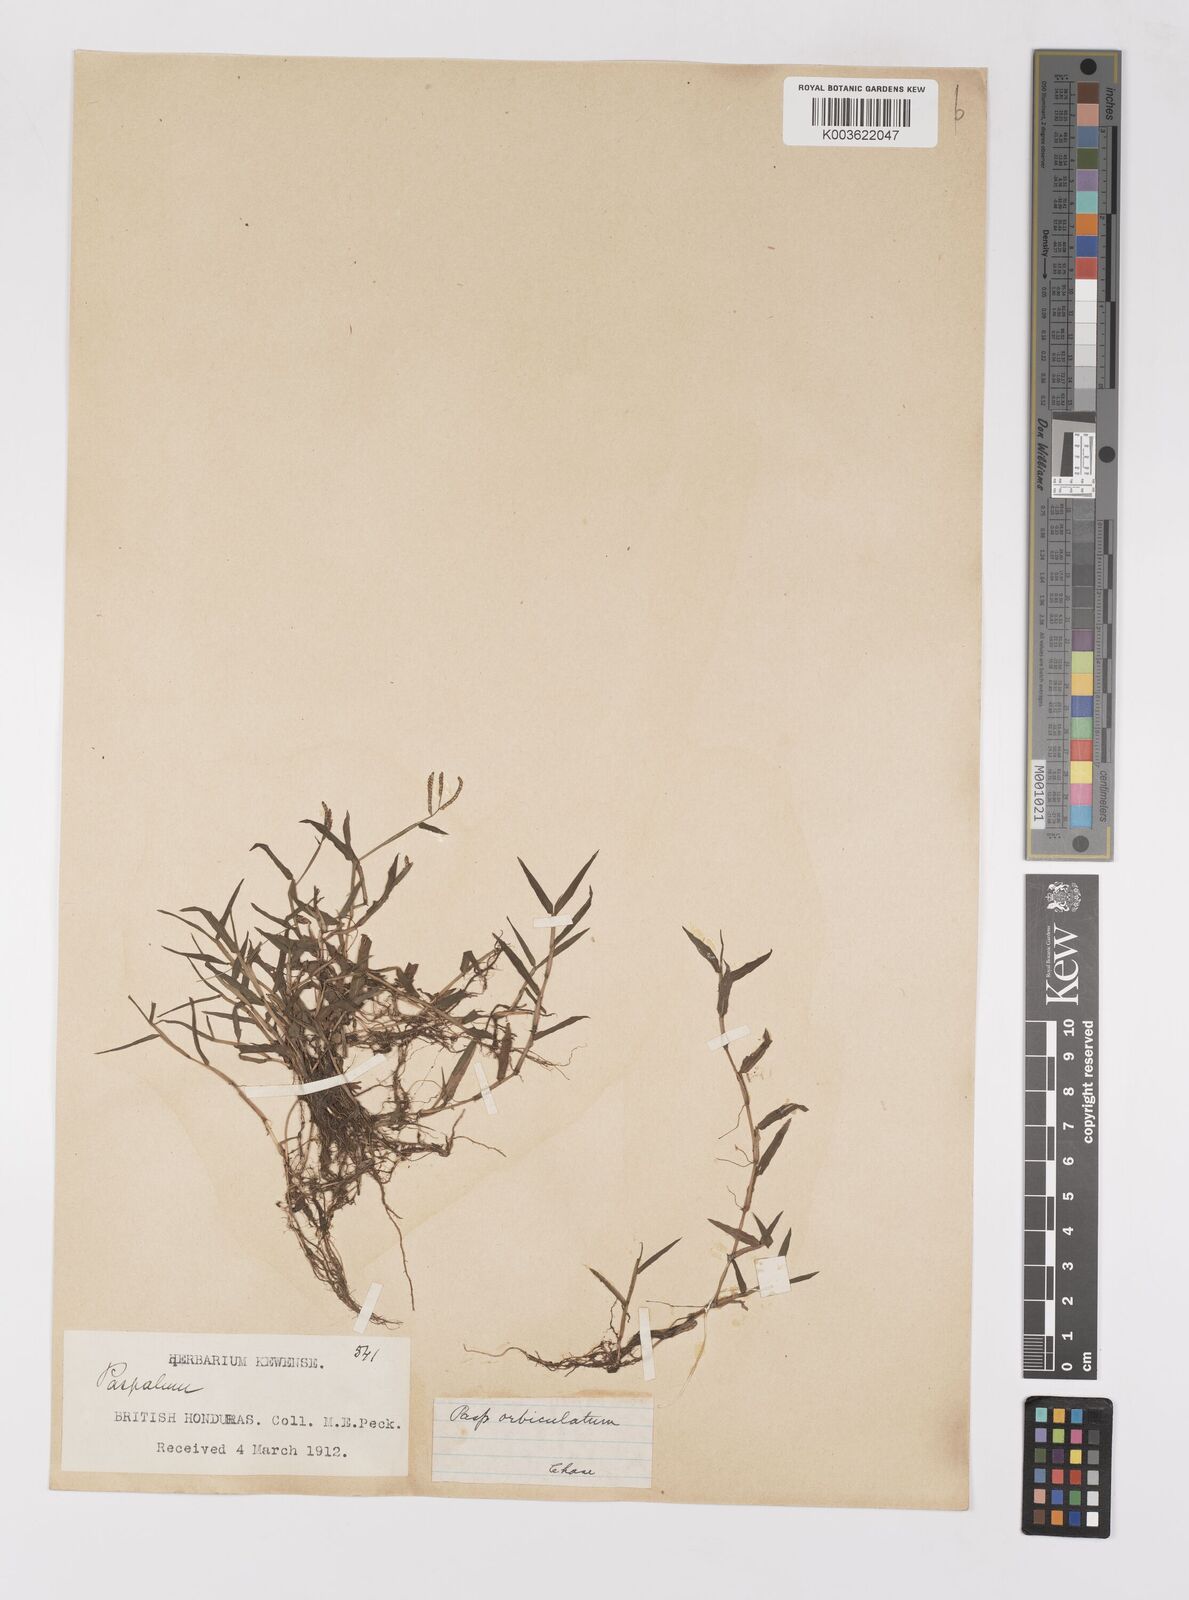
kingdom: Plantae
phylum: Tracheophyta
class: Liliopsida
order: Poales
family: Poaceae
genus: Paspalum
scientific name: Paspalum orbiculatum
